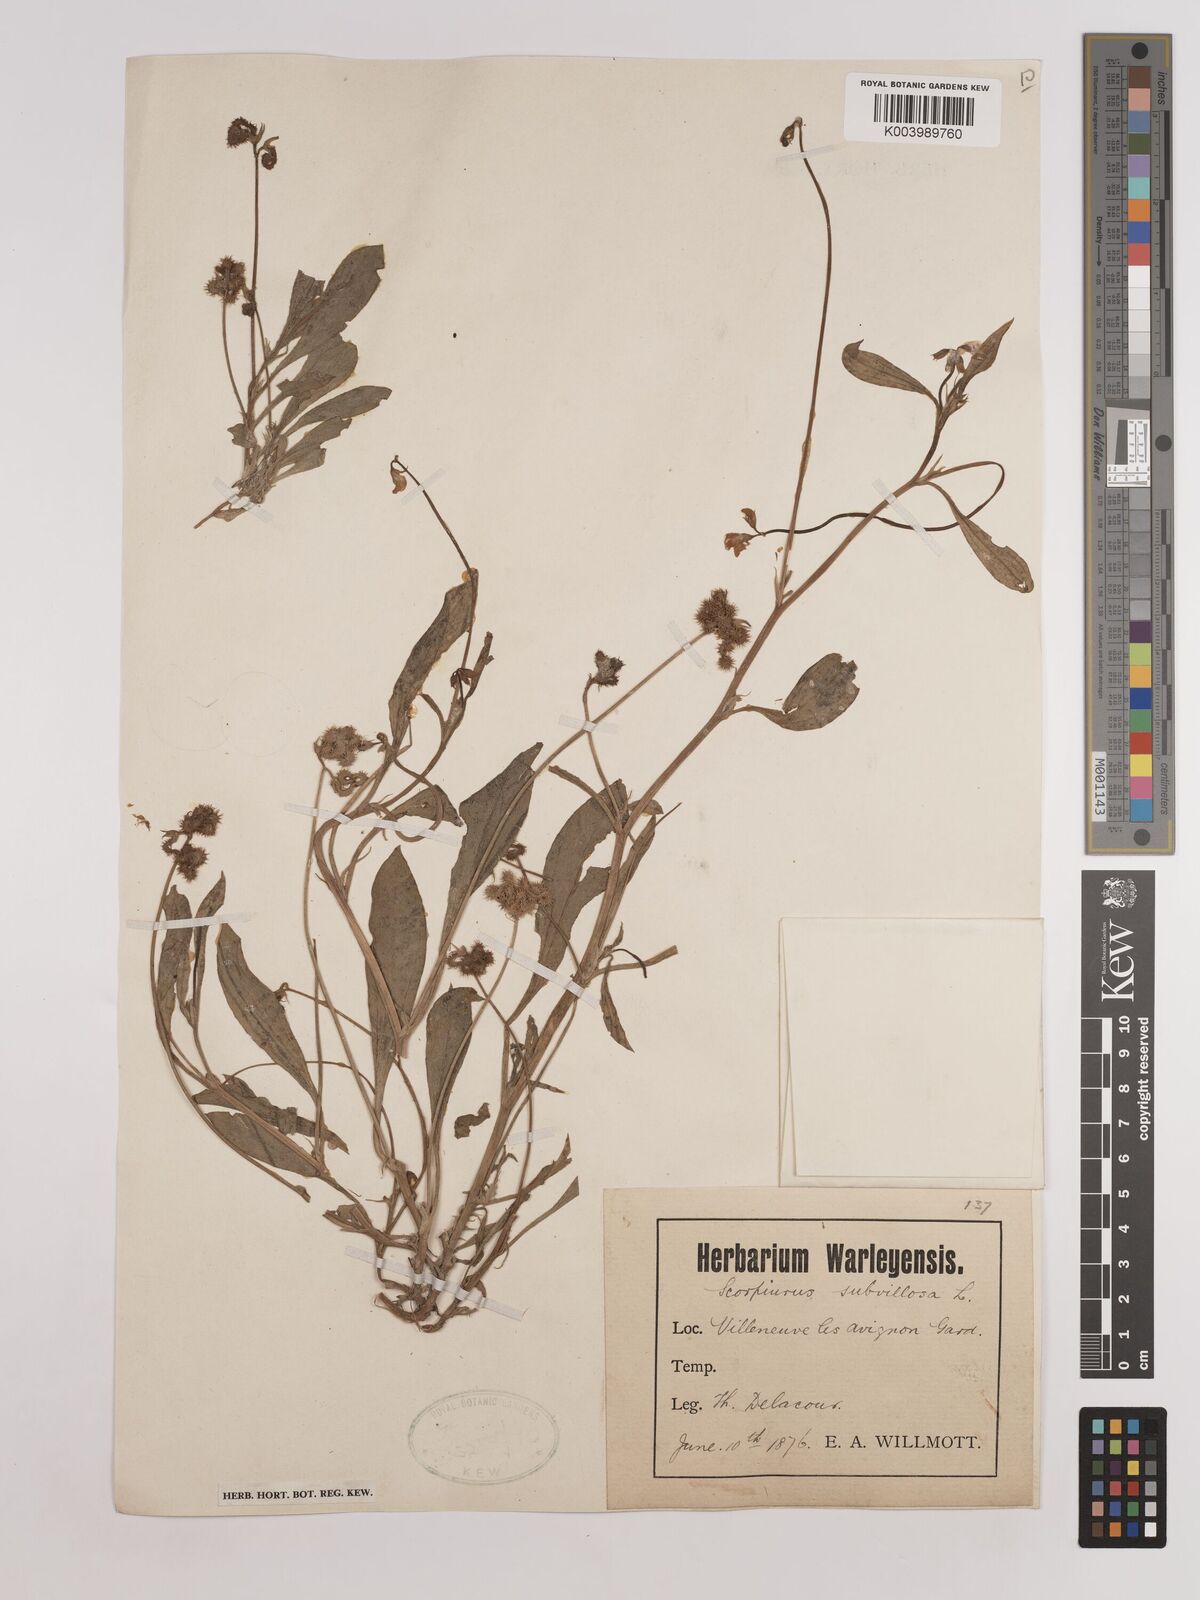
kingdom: Plantae
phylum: Tracheophyta
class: Magnoliopsida
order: Fabales
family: Fabaceae
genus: Scorpiurus
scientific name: Scorpiurus muricatus
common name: Caterpillar-plant
